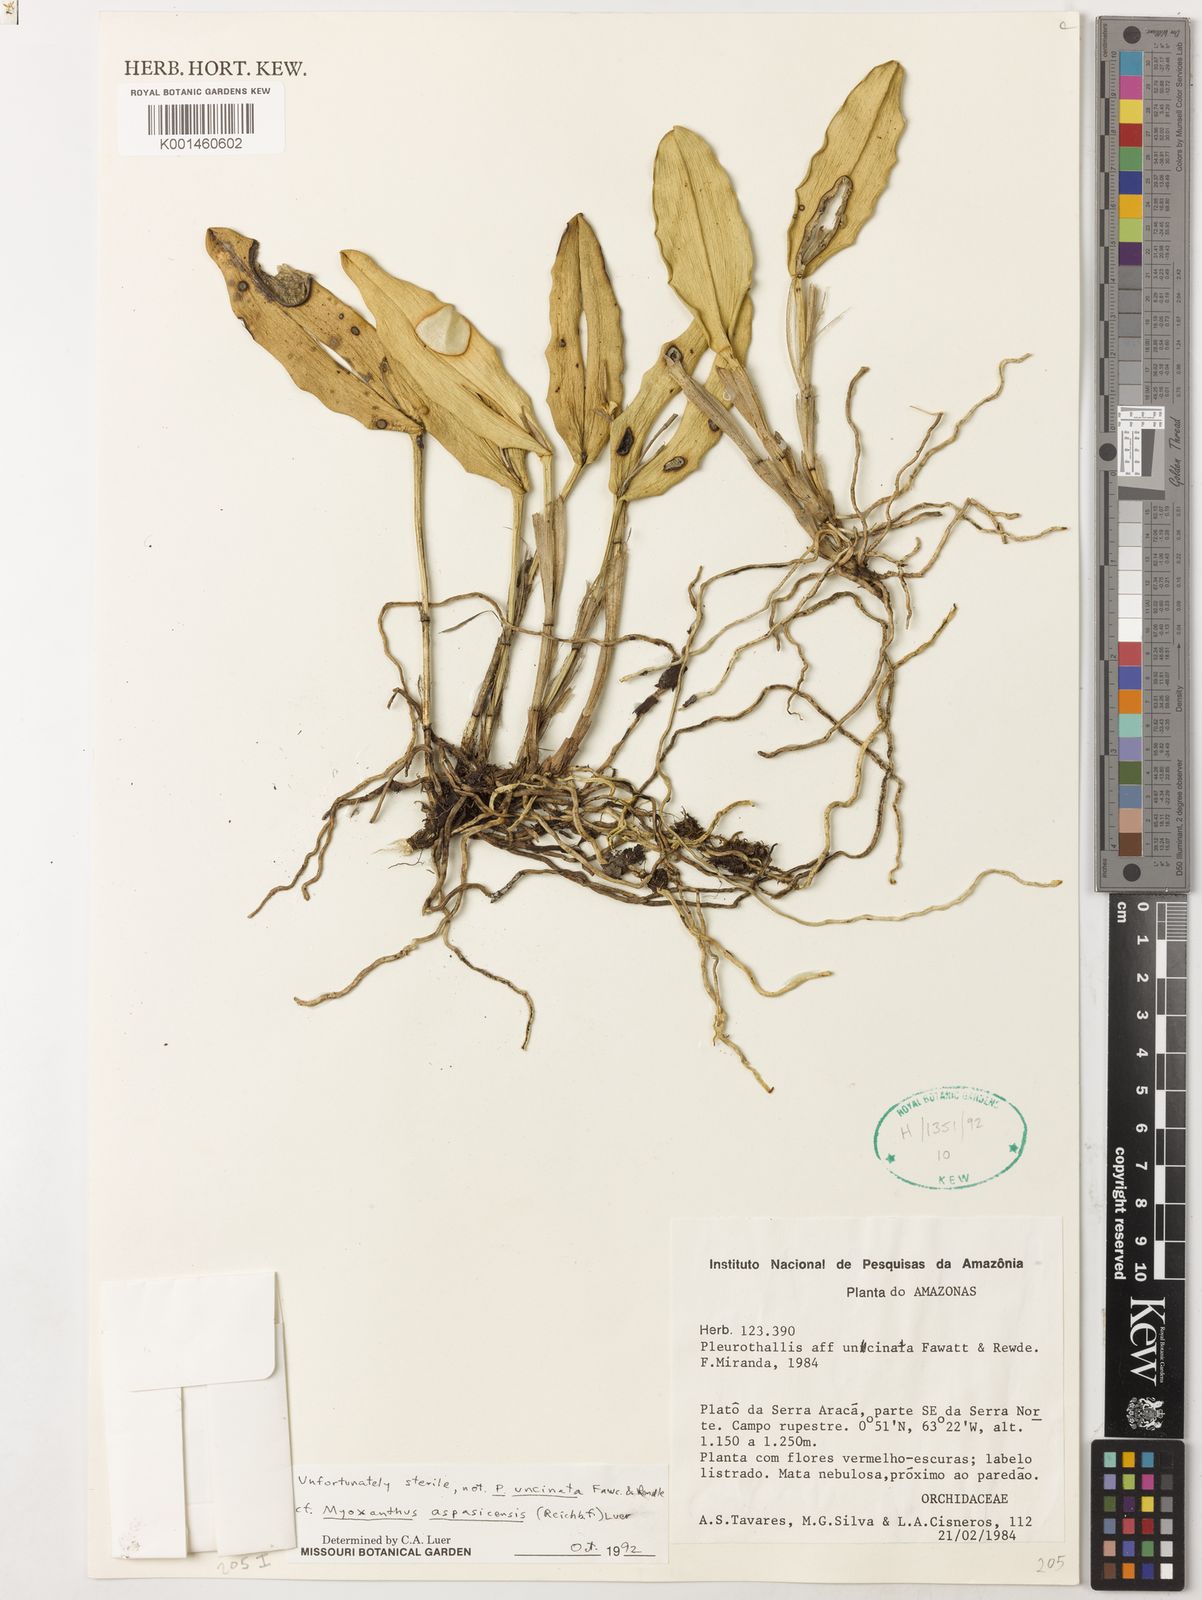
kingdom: Plantae
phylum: Tracheophyta
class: Liliopsida
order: Asparagales
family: Orchidaceae
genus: Echinosepala
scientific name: Echinosepala aspasicensis
